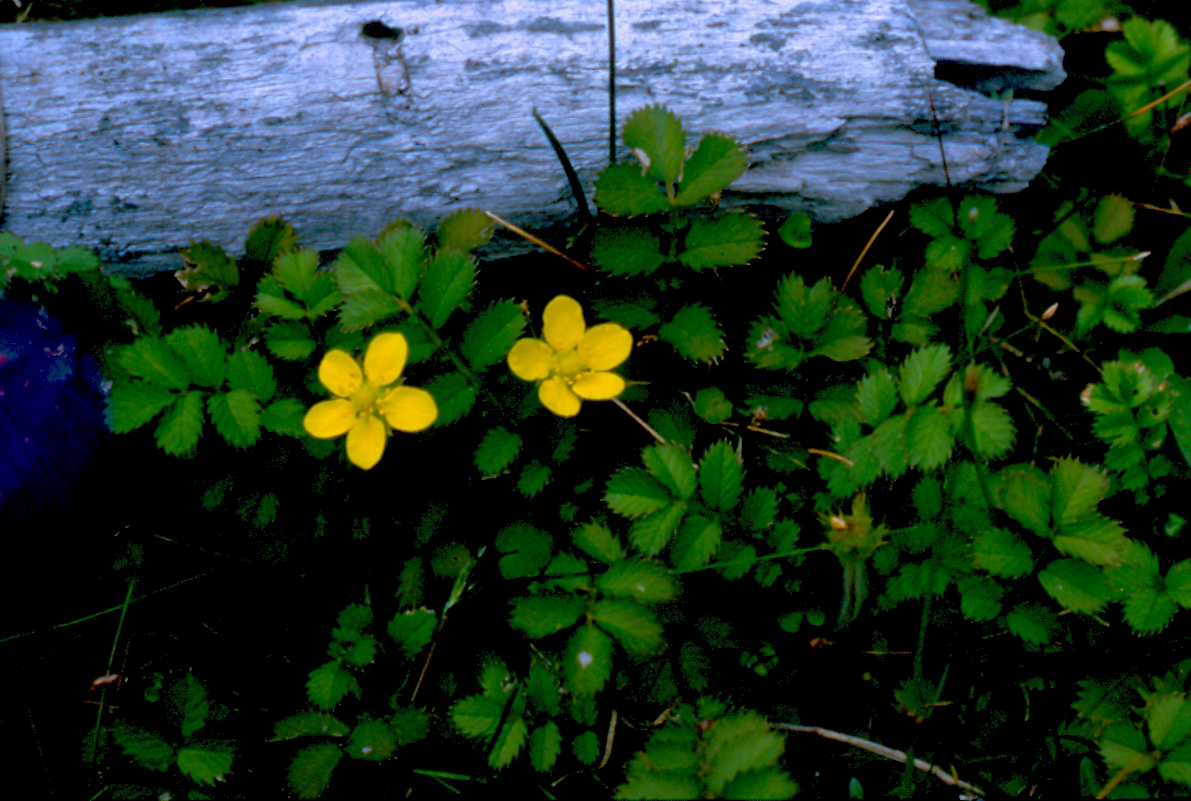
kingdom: Plantae
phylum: Tracheophyta
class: Magnoliopsida
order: Rosales
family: Rosaceae
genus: Argentina
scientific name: Argentina anserinoides
